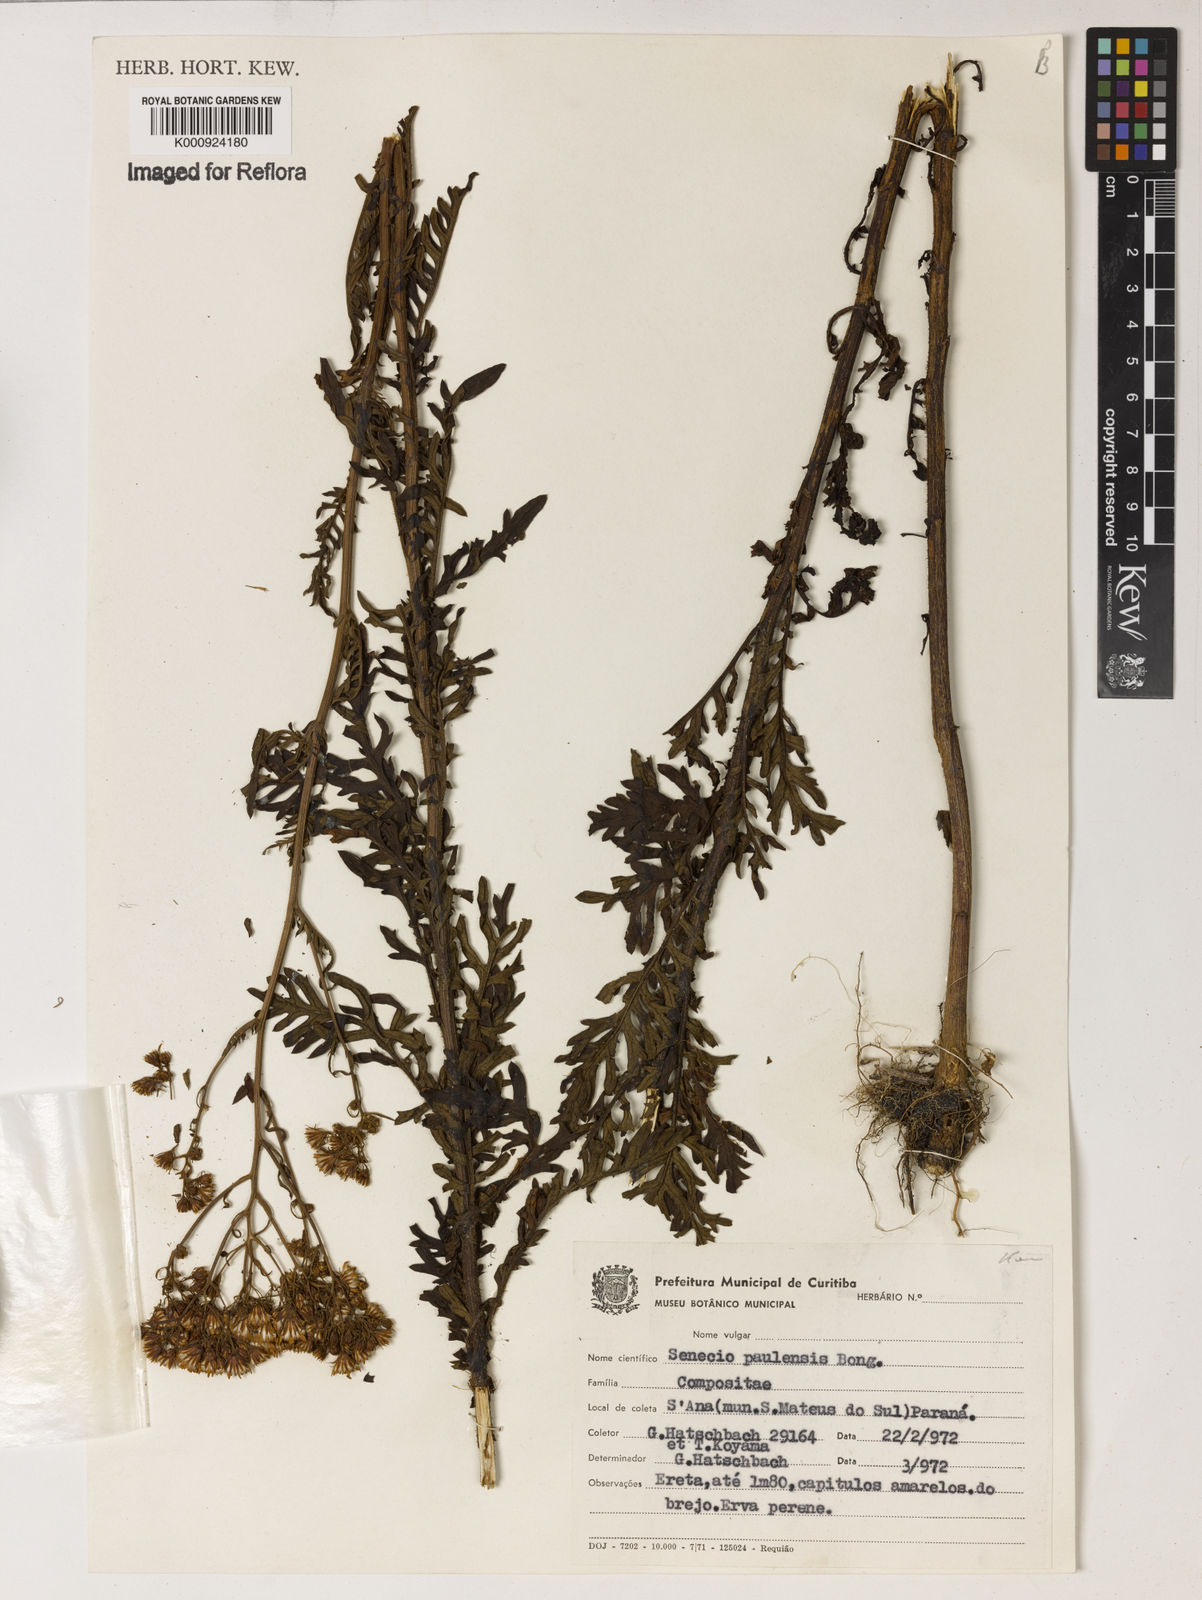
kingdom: Plantae
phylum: Tracheophyta
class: Magnoliopsida
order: Asterales
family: Asteraceae
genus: Senecio
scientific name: Senecio paulensis
